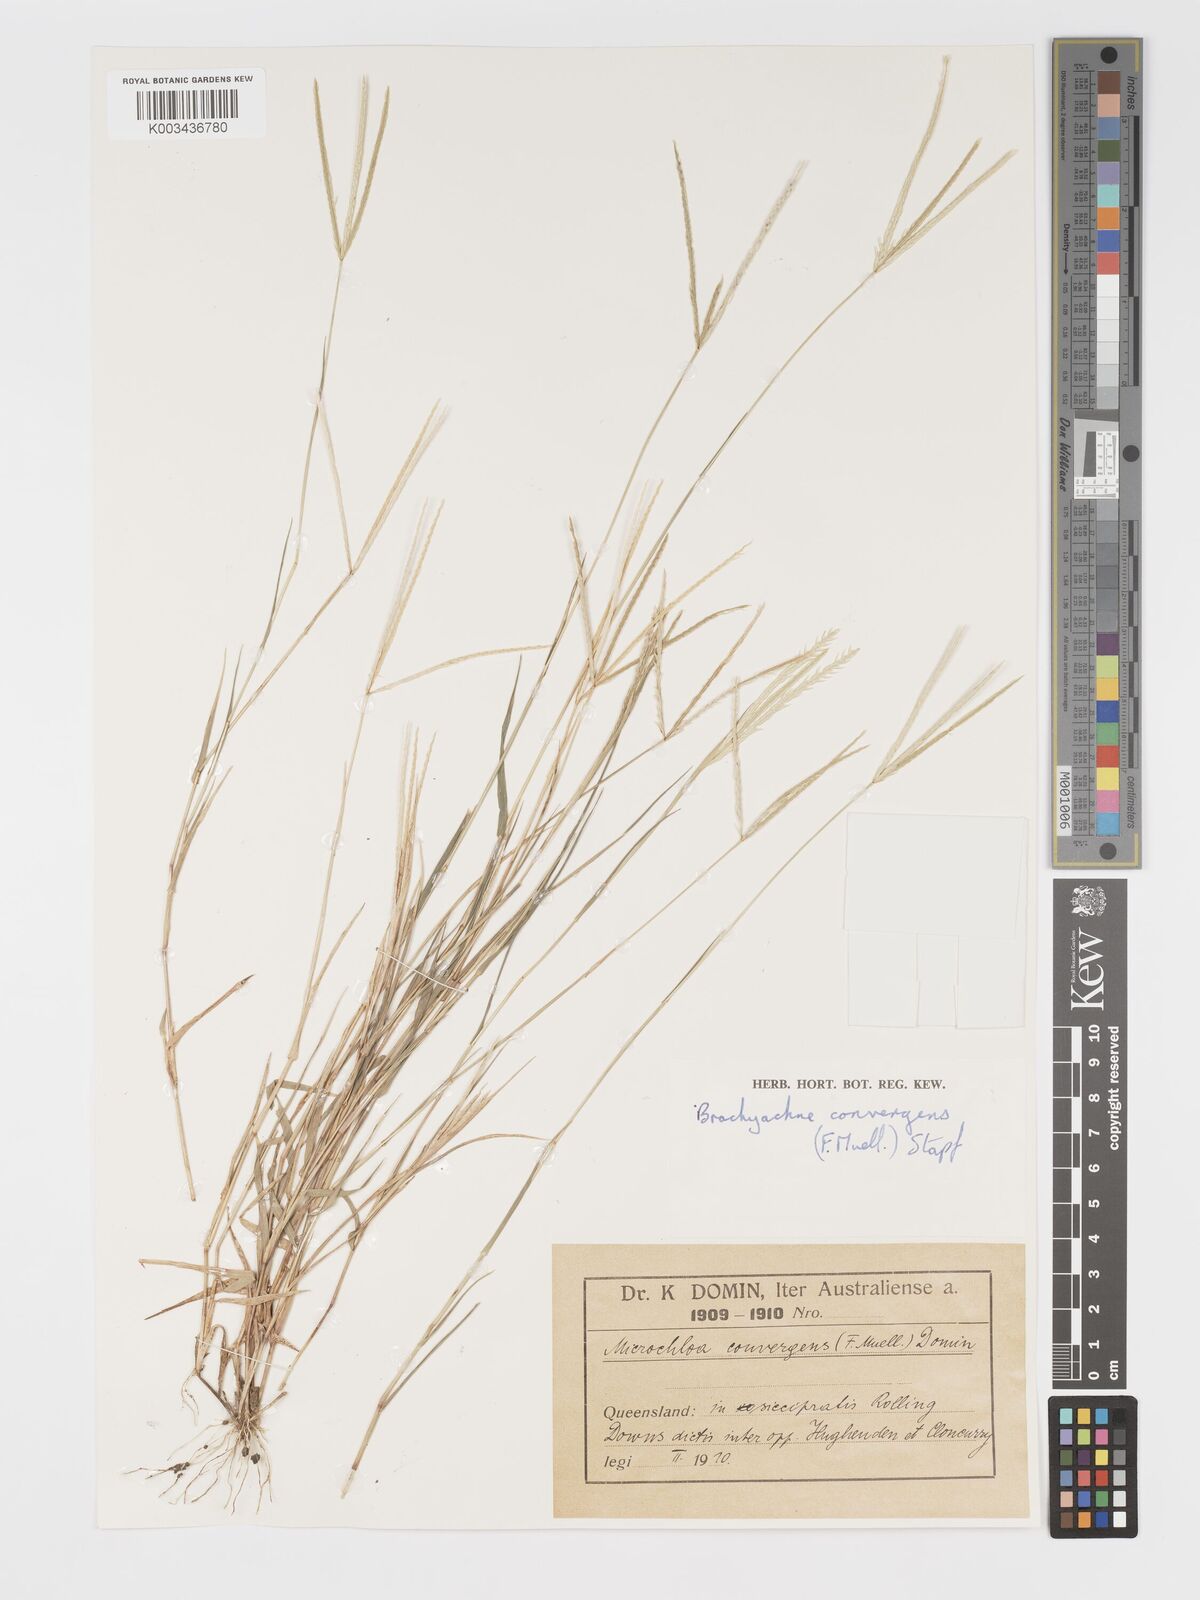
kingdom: Plantae
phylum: Tracheophyta
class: Liliopsida
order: Poales
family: Poaceae
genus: Cynodon
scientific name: Cynodon convergens
